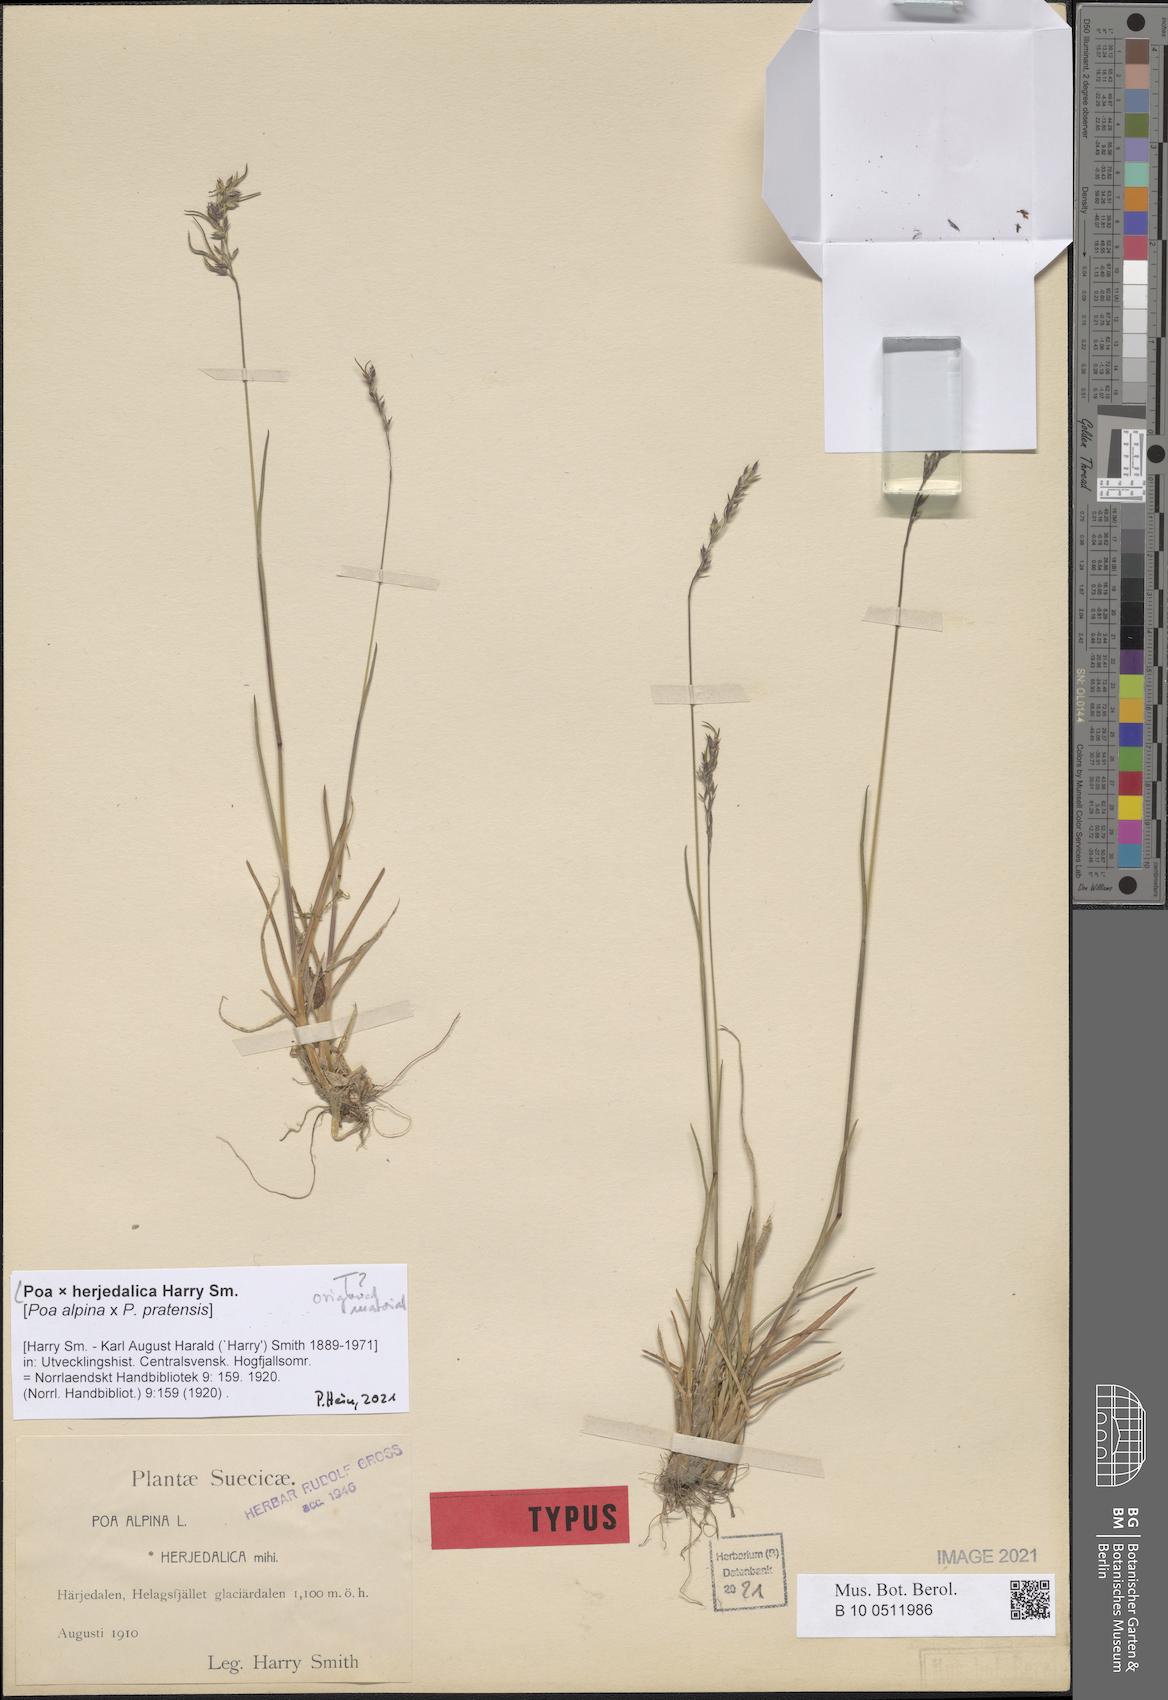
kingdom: Plantae
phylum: Tracheophyta
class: Liliopsida
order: Poales
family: Poaceae
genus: Poa
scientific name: Poa herjedalica
